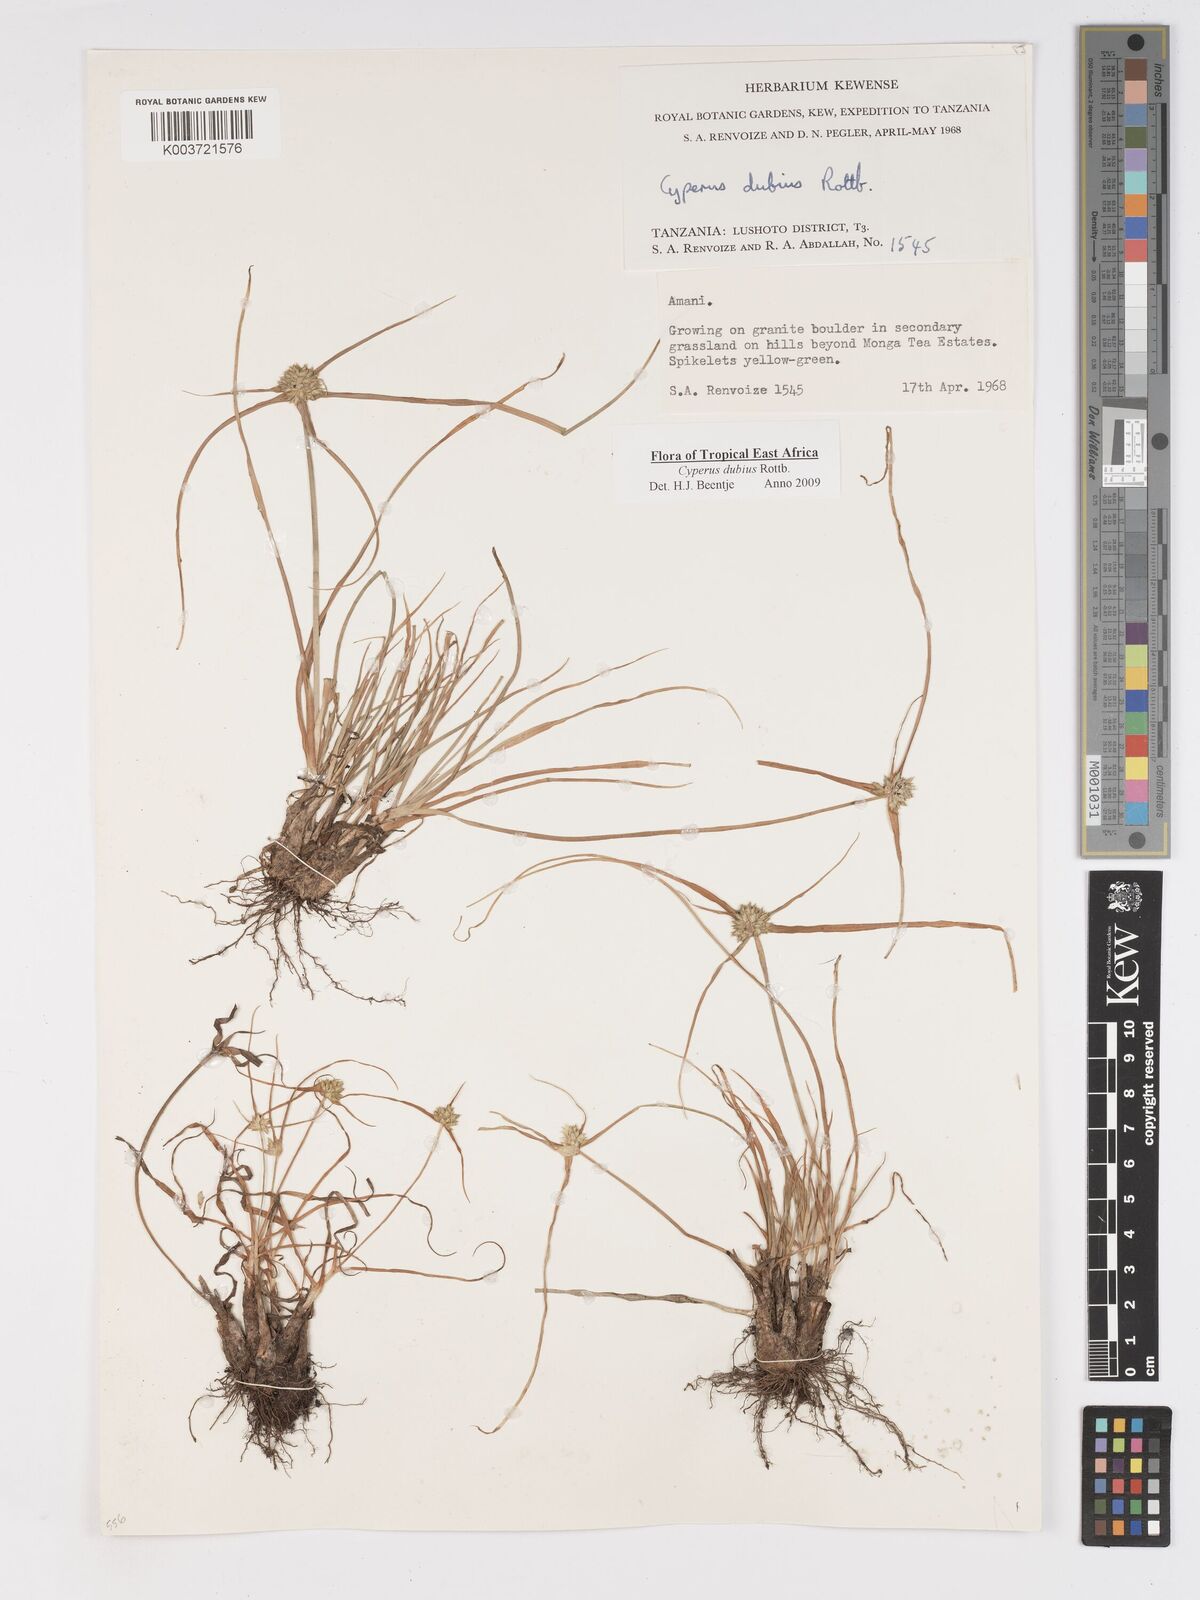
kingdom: Plantae
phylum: Tracheophyta
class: Liliopsida
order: Poales
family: Cyperaceae
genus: Cyperus
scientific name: Cyperus dubius
